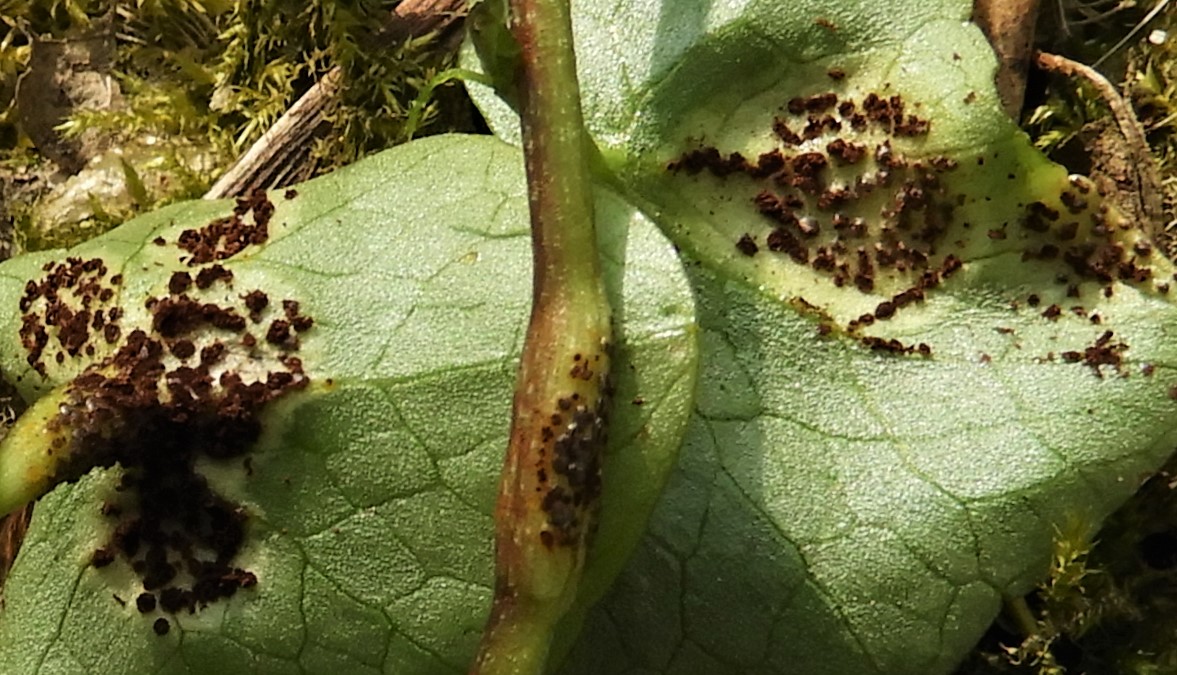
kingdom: Fungi
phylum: Basidiomycota
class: Pucciniomycetes
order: Pucciniales
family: Pucciniaceae
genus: Uromyces
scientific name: Uromyces ficariae
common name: vorterod-encellerust
